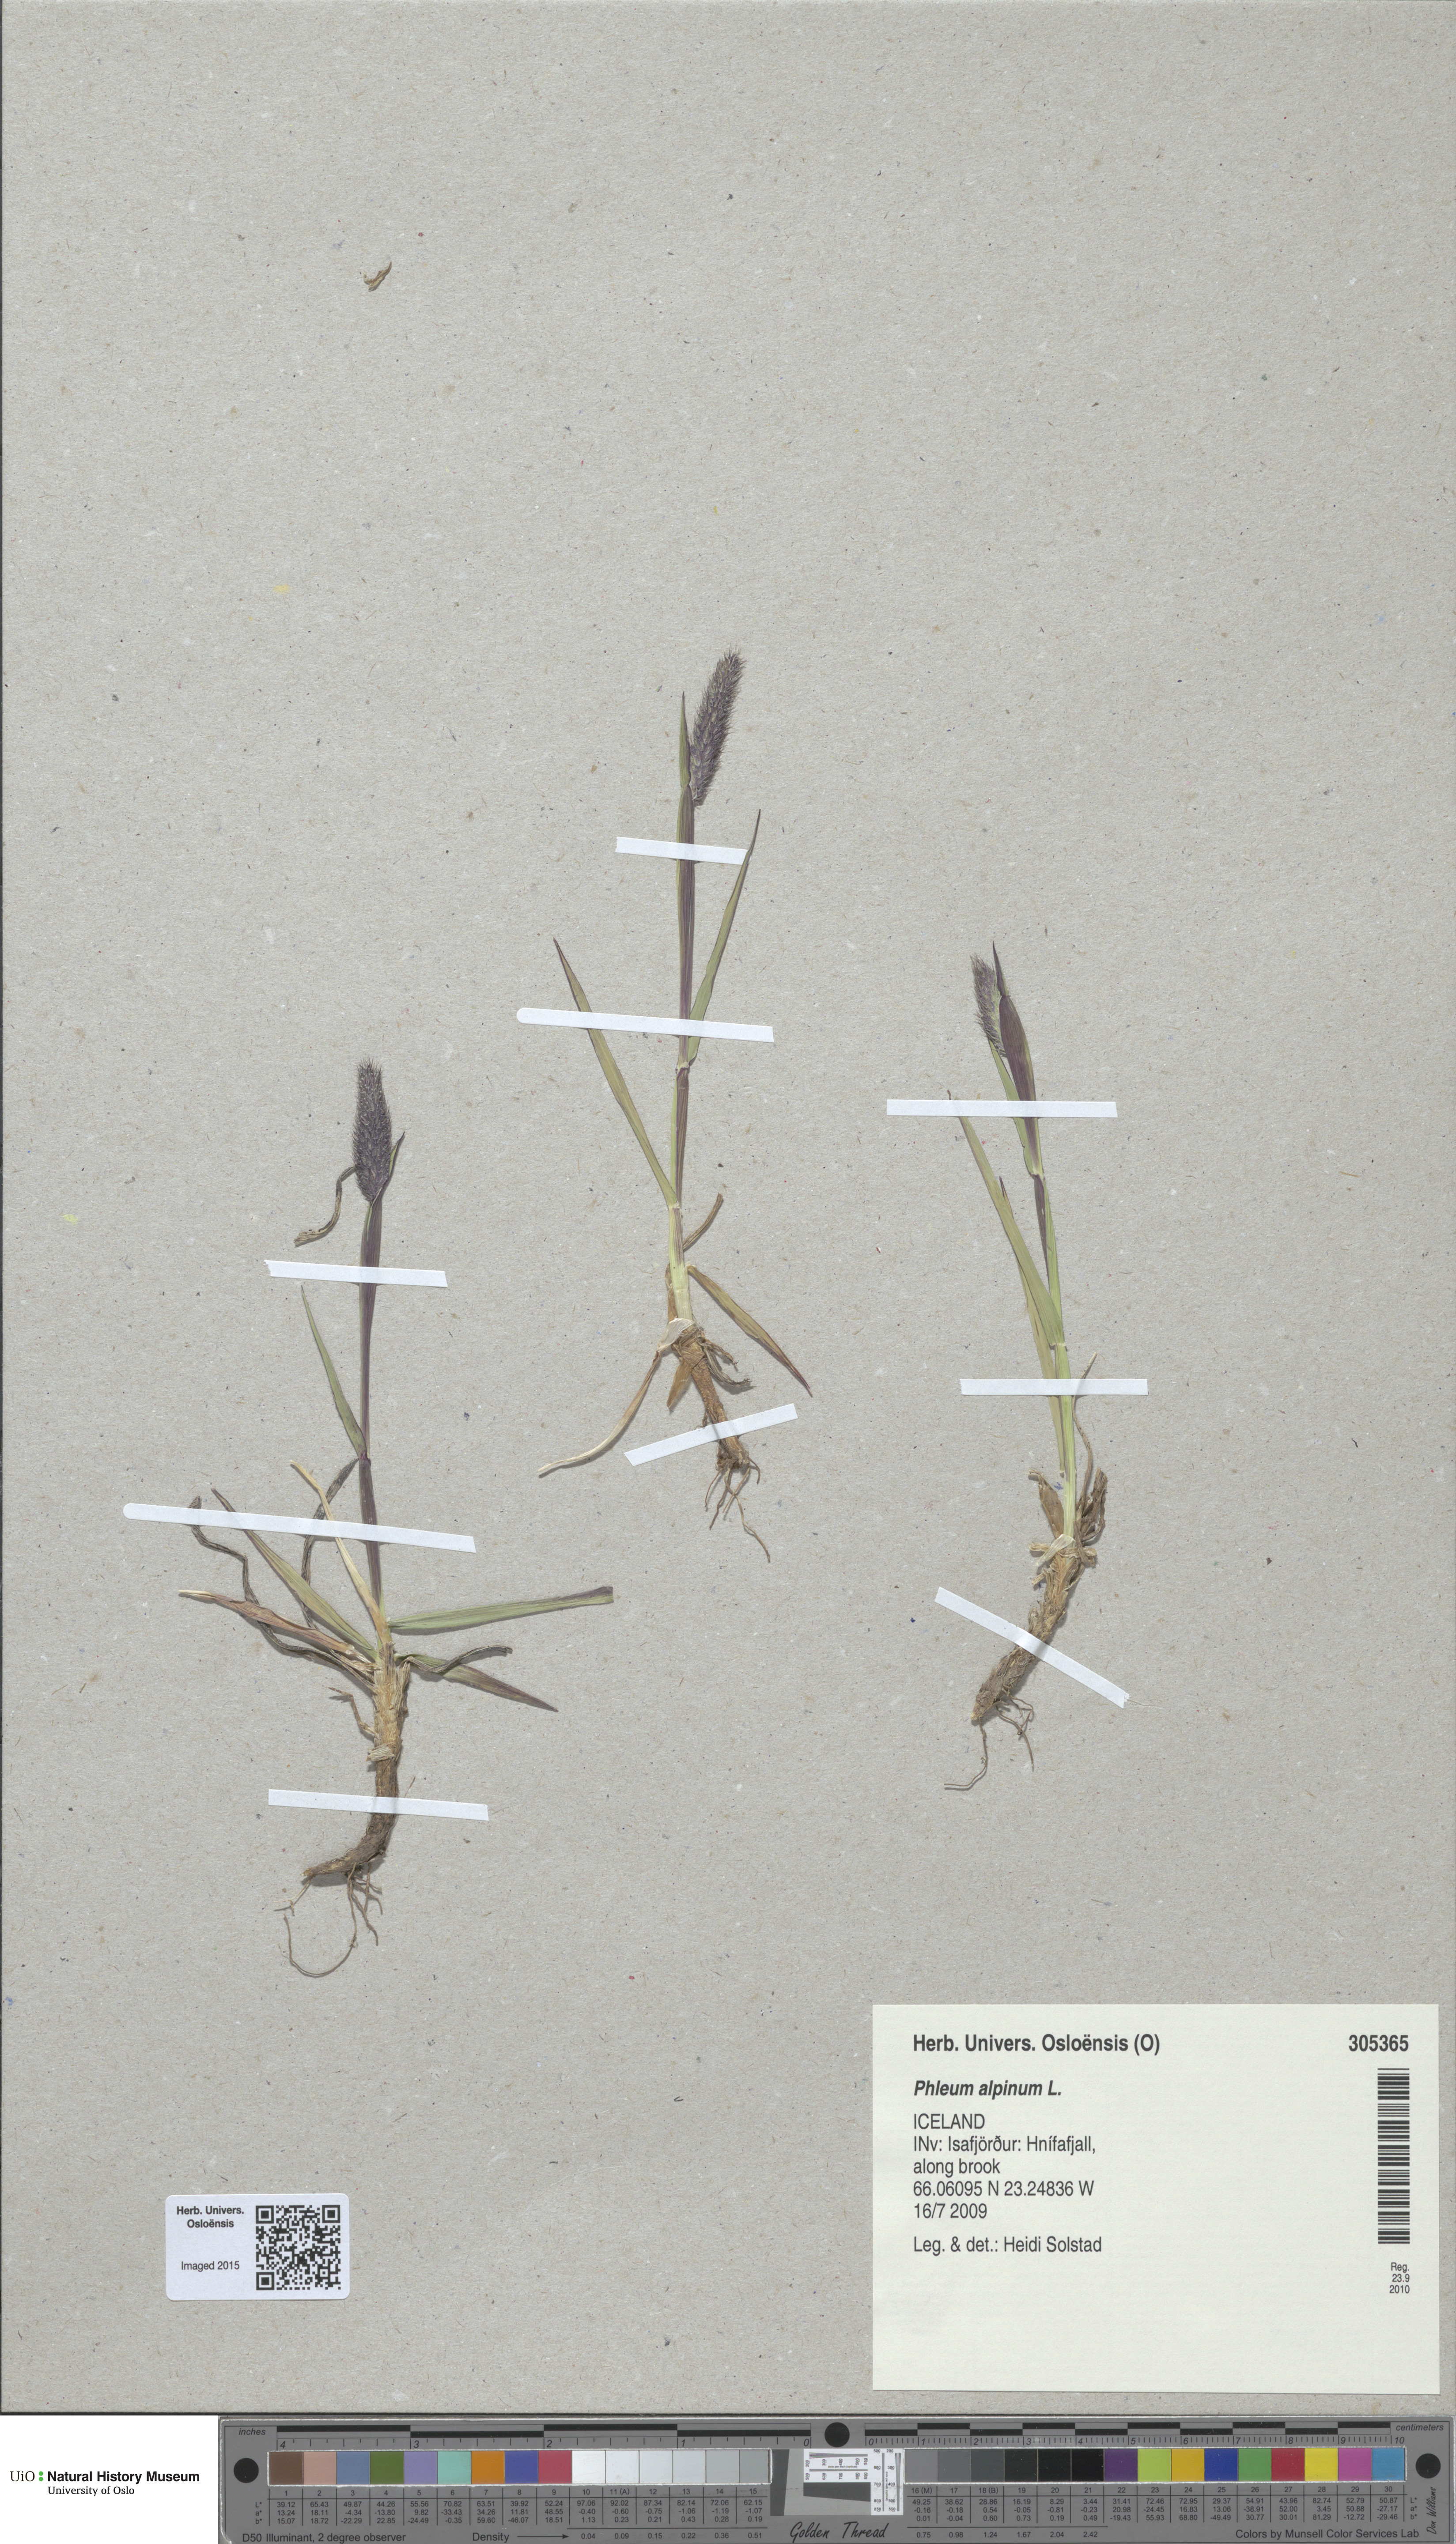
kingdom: Plantae
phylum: Tracheophyta
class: Liliopsida
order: Poales
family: Poaceae
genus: Phleum
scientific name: Phleum alpinum
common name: Alpine cat's-tail
